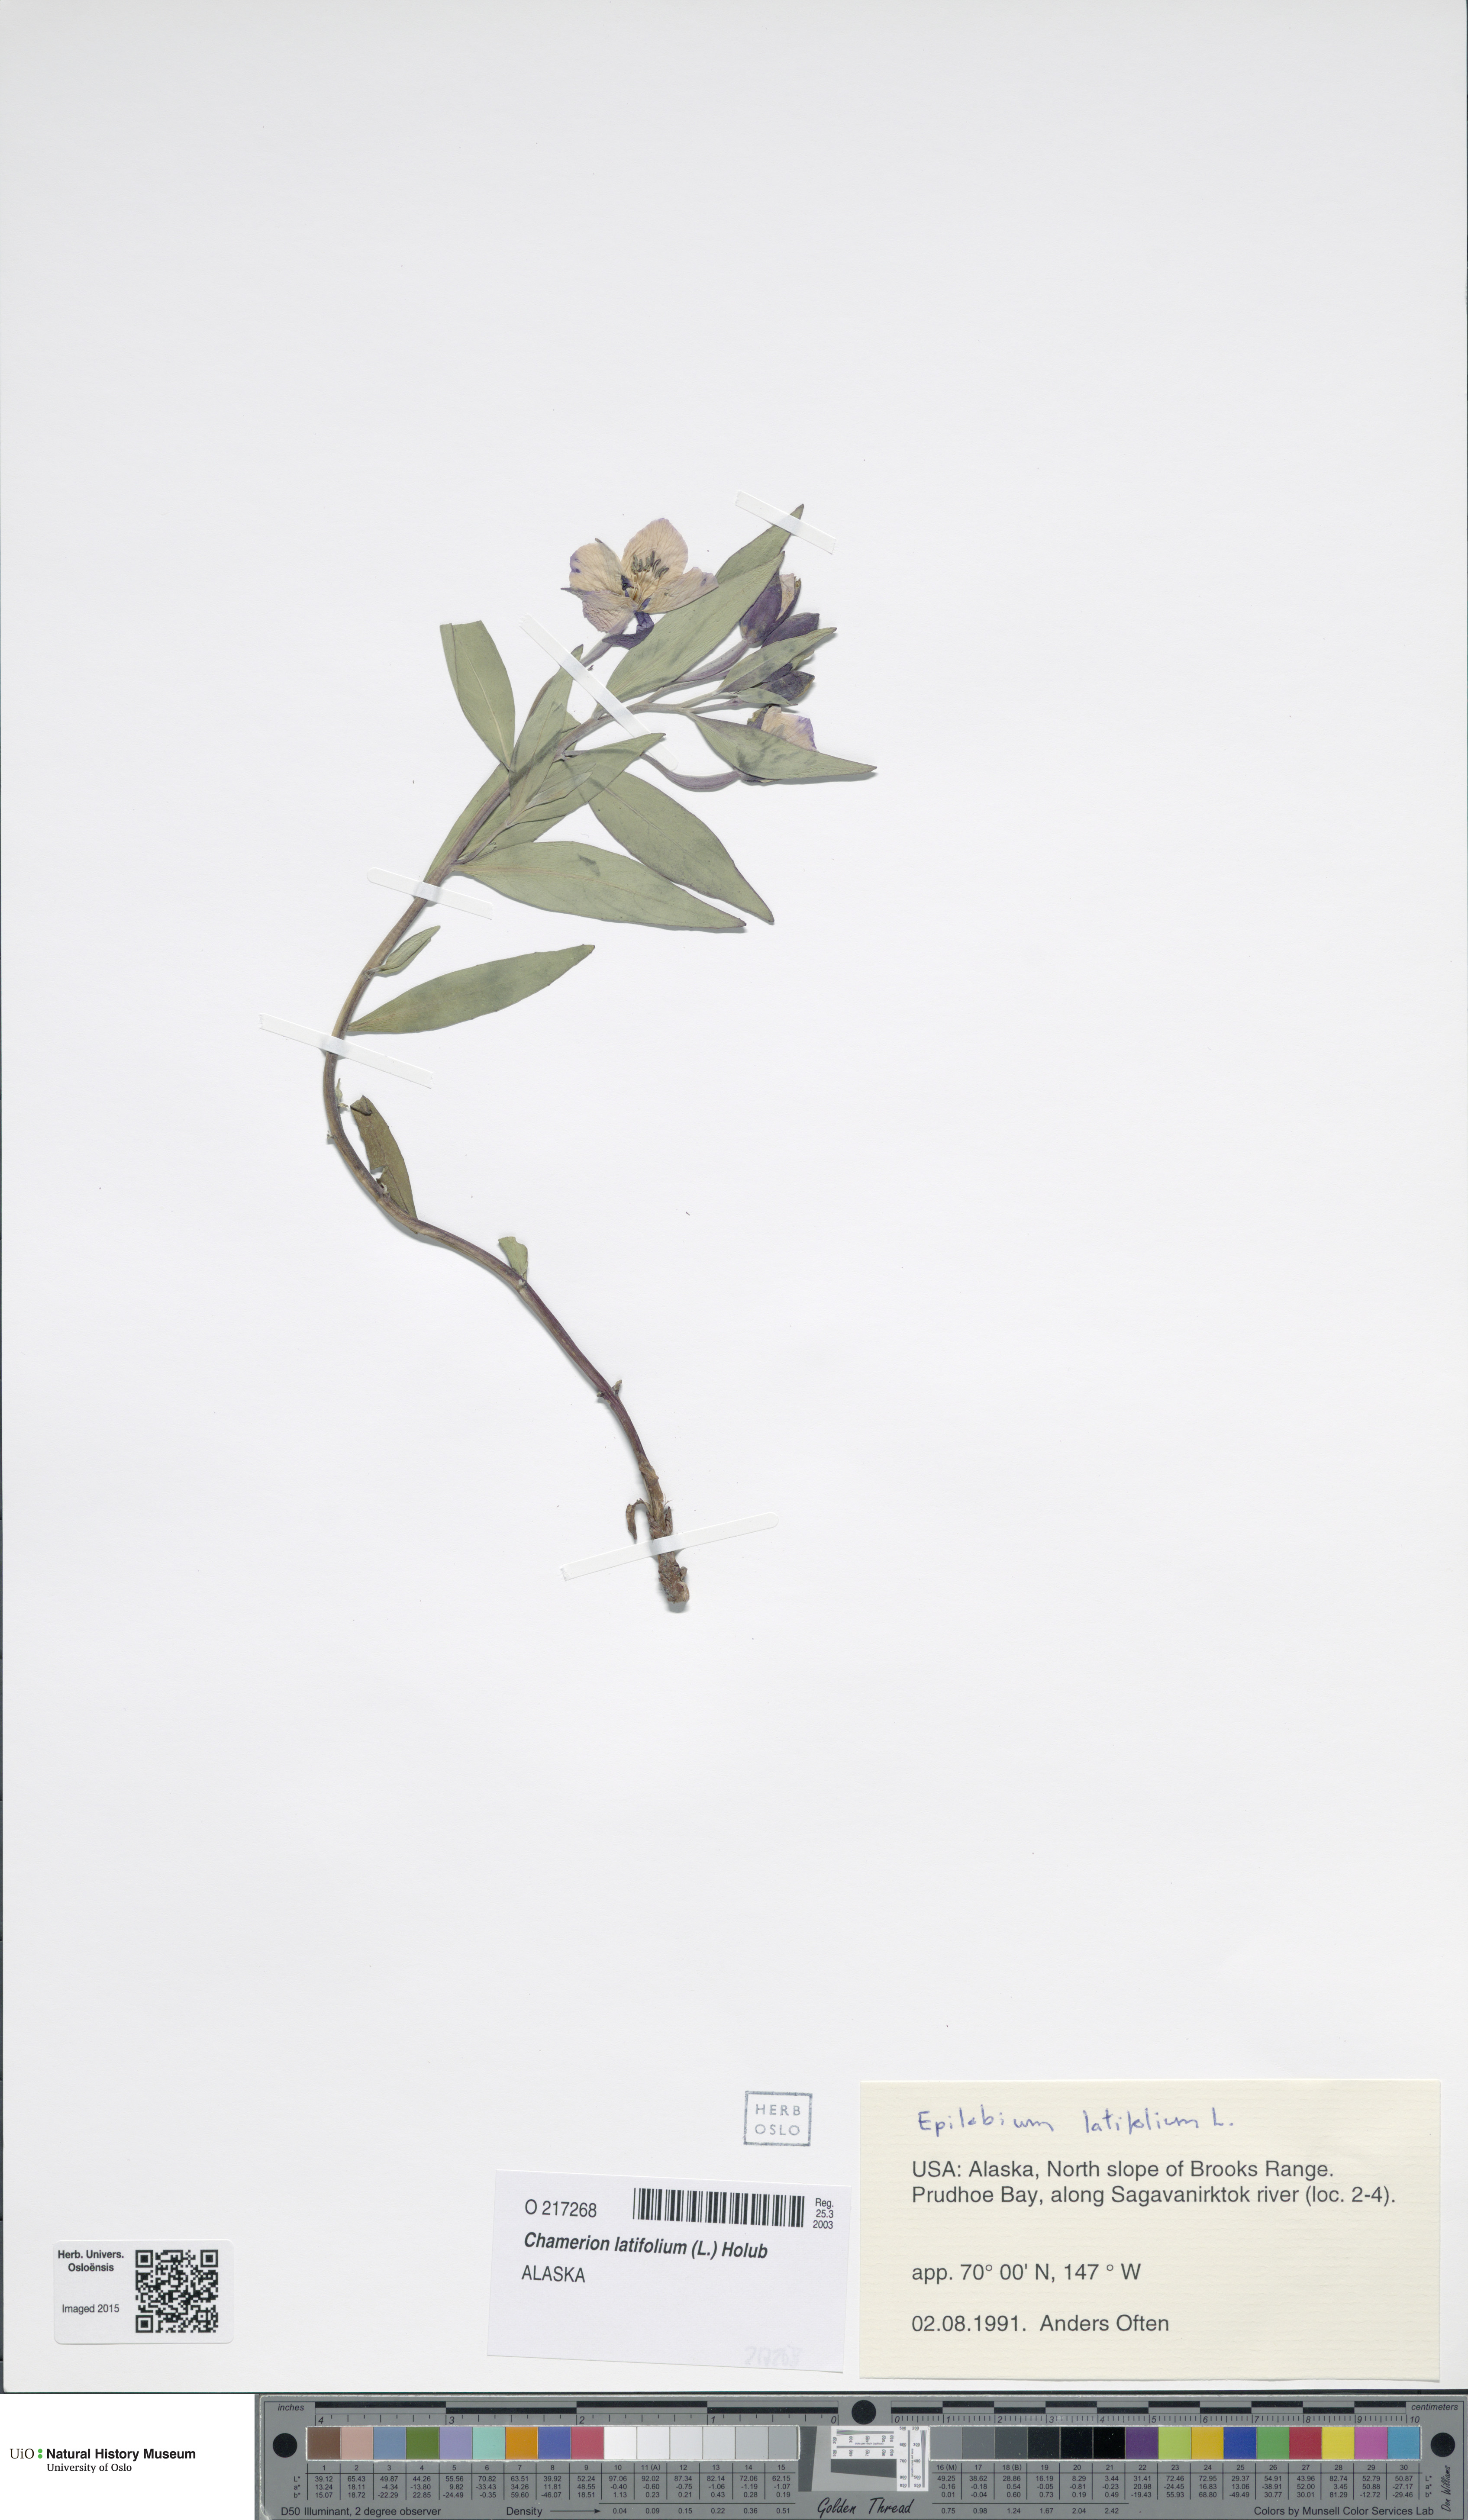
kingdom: Plantae
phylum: Tracheophyta
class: Magnoliopsida
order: Myrtales
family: Onagraceae
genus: Chamaenerion
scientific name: Chamaenerion latifolium
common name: Dwarf fireweed
